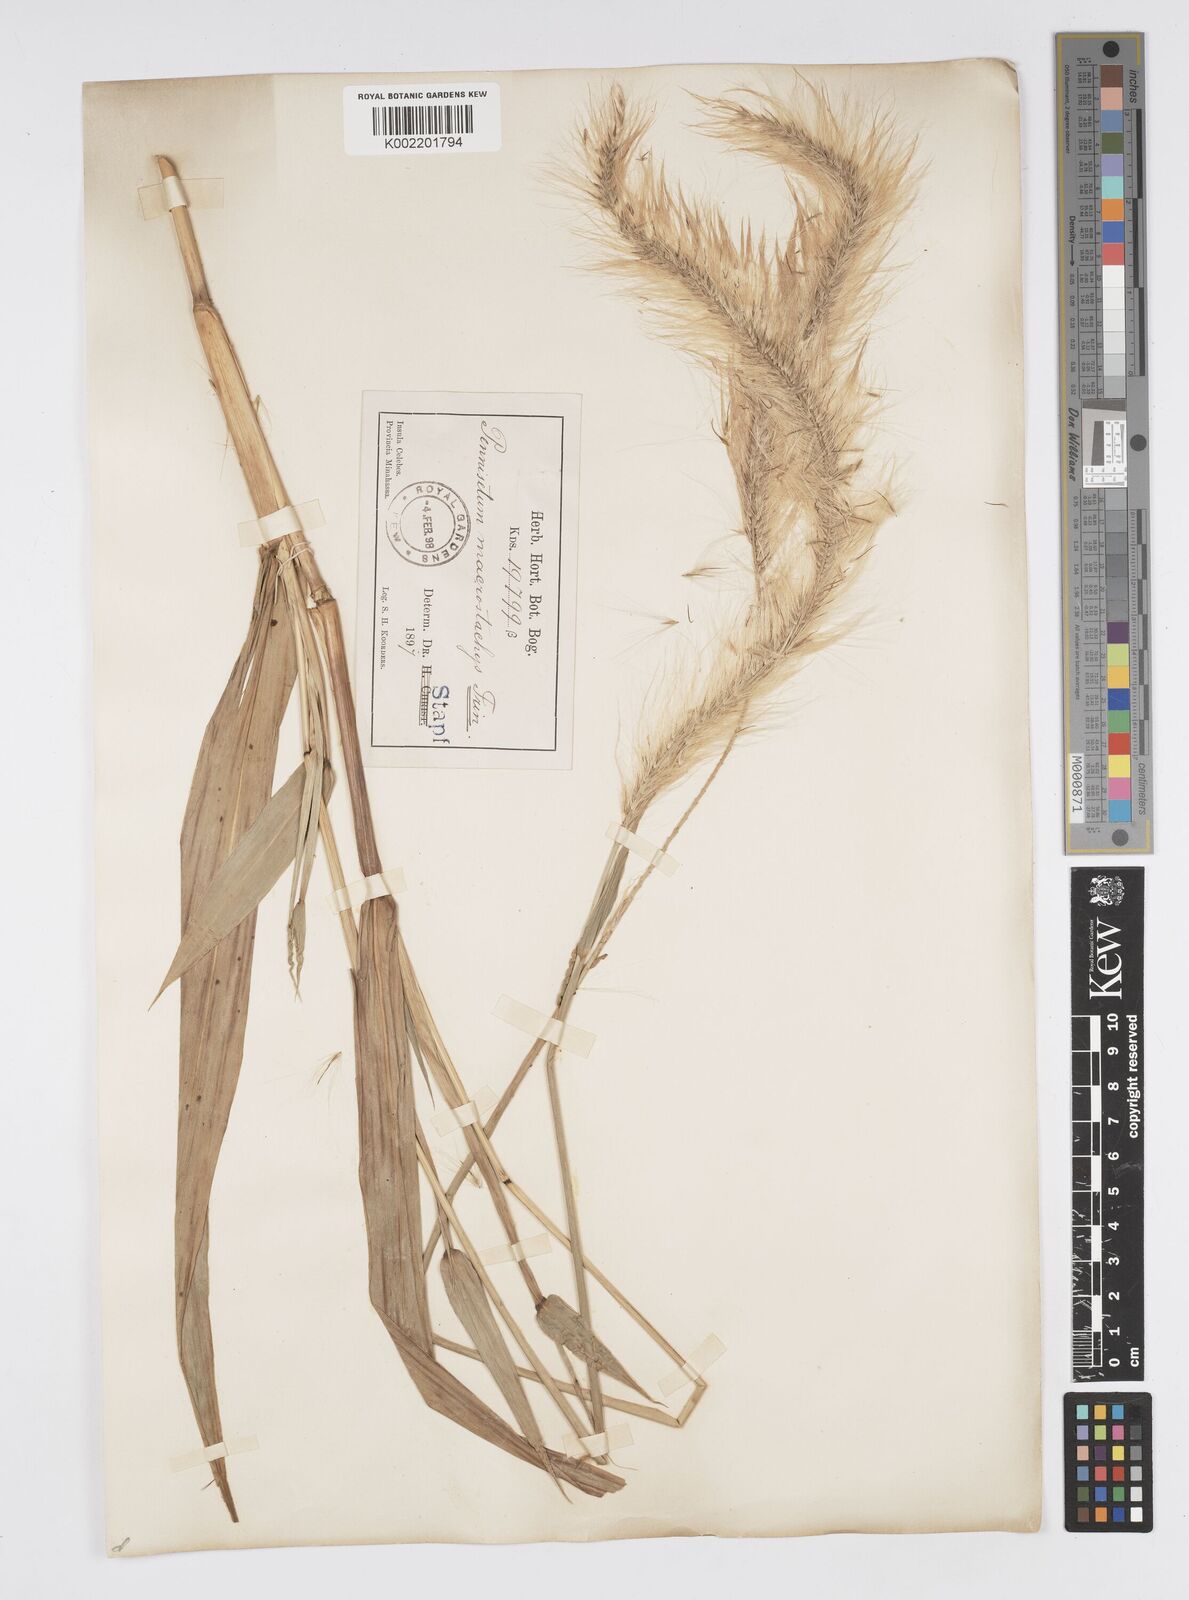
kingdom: Plantae
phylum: Tracheophyta
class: Liliopsida
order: Poales
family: Poaceae
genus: Cenchrus
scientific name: Cenchrus purpureus
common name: Elephant grass
